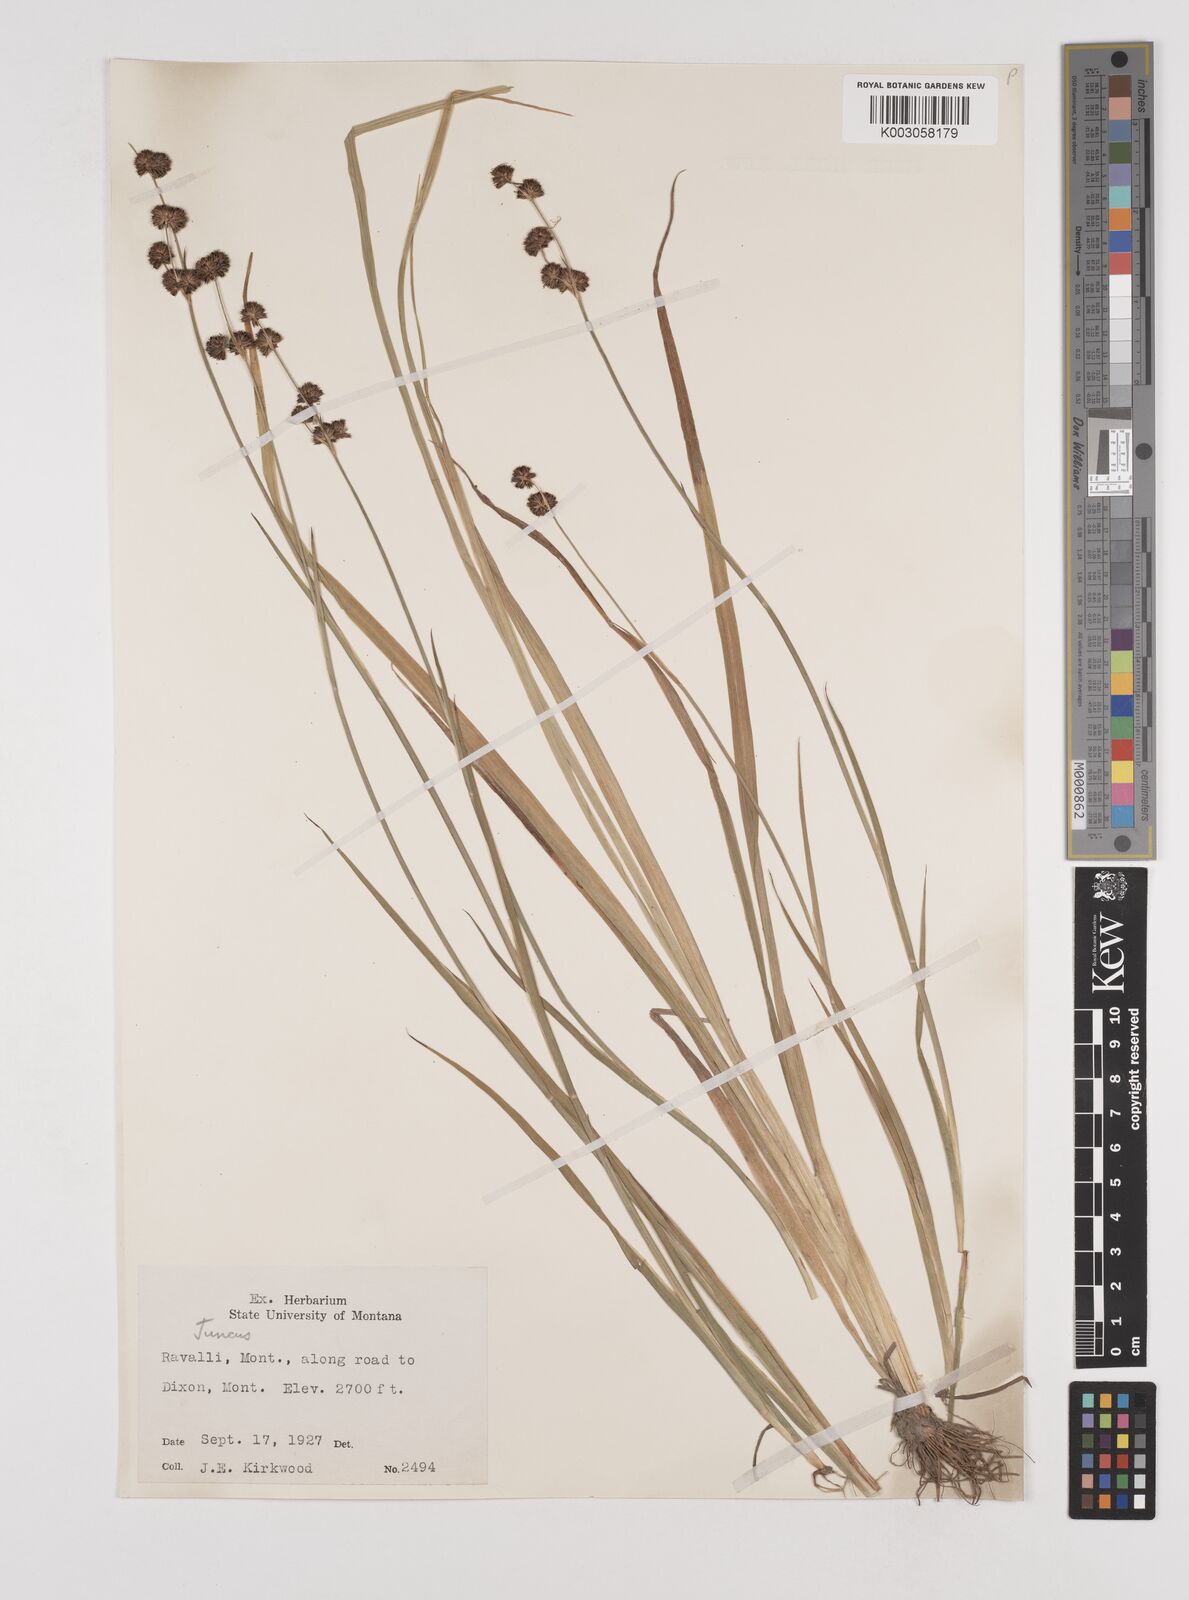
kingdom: Plantae
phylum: Tracheophyta
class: Liliopsida
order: Poales
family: Juncaceae
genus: Juncus
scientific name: Juncus
